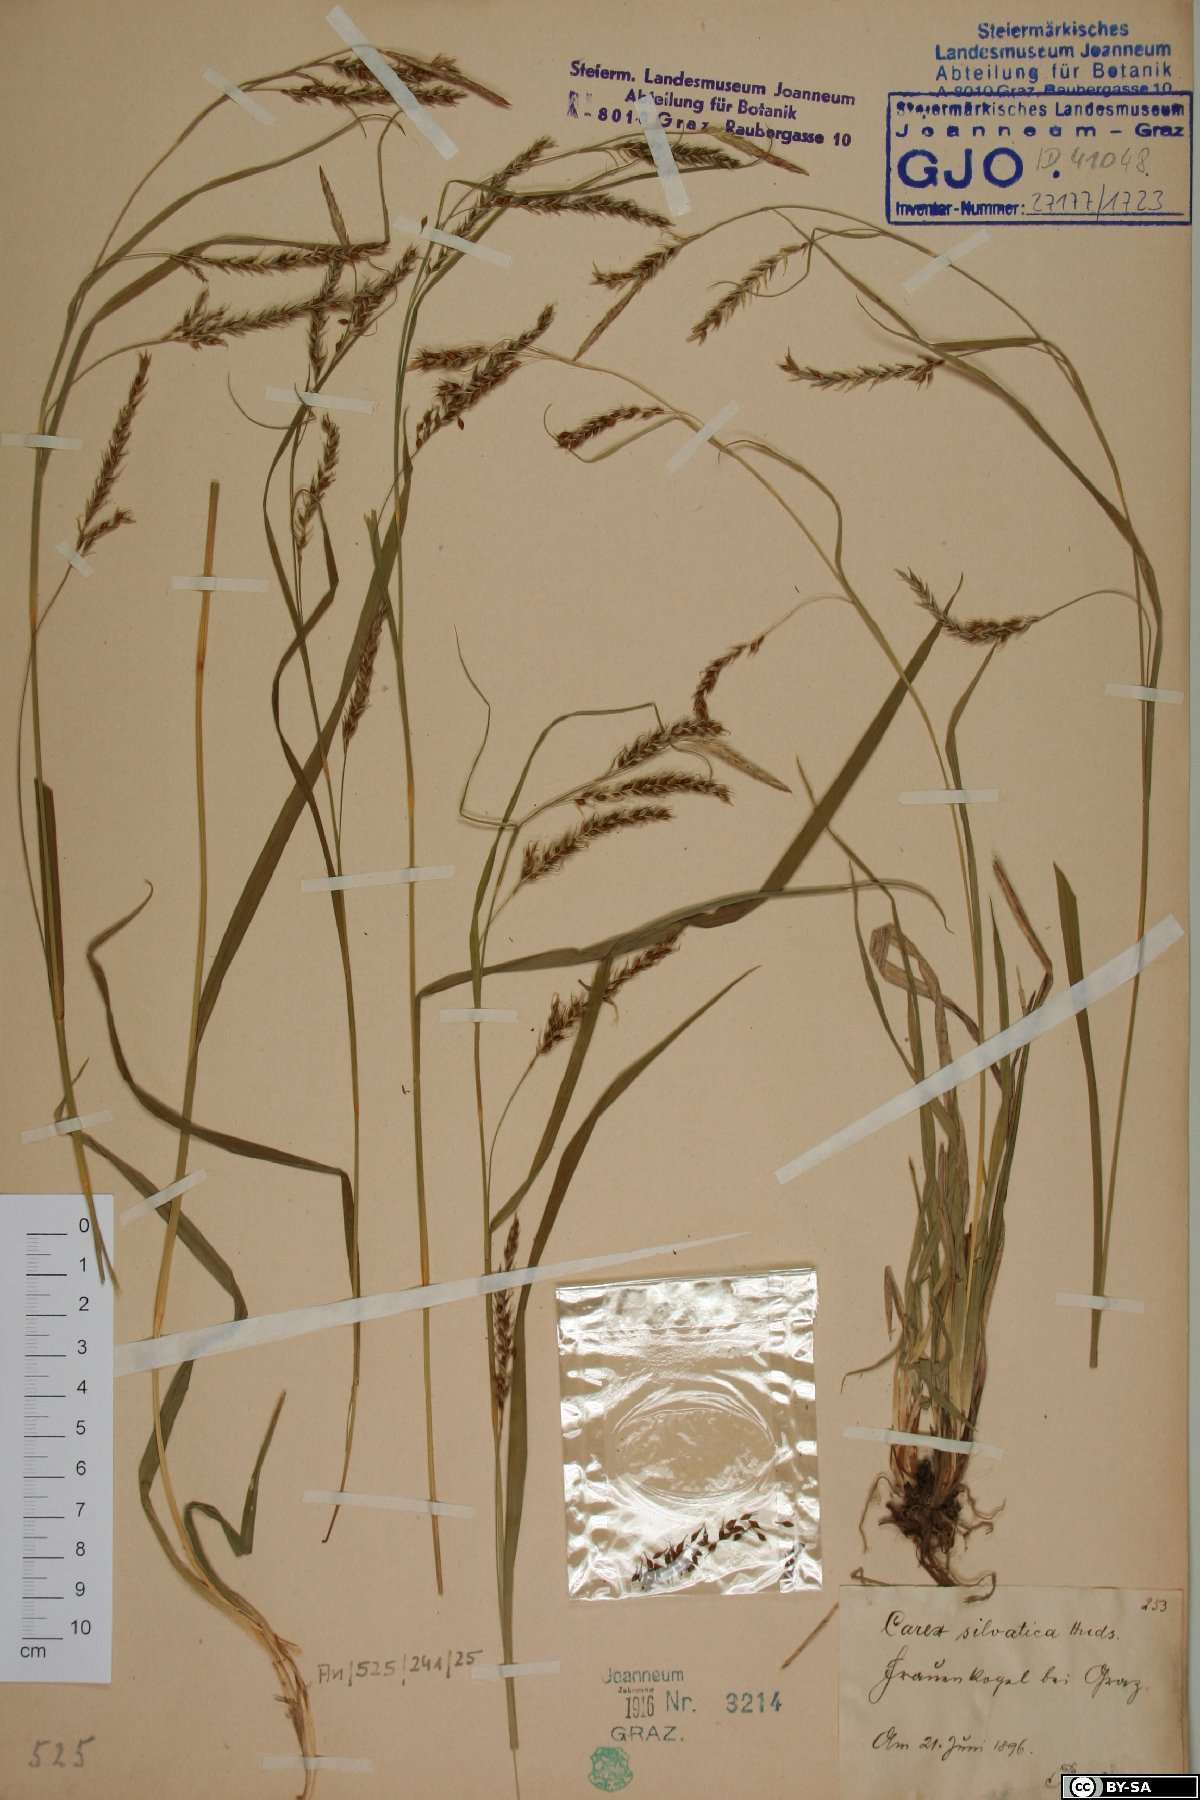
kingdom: Plantae
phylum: Tracheophyta
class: Liliopsida
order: Poales
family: Cyperaceae
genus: Carex
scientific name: Carex sylvatica
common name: Wood-sedge
